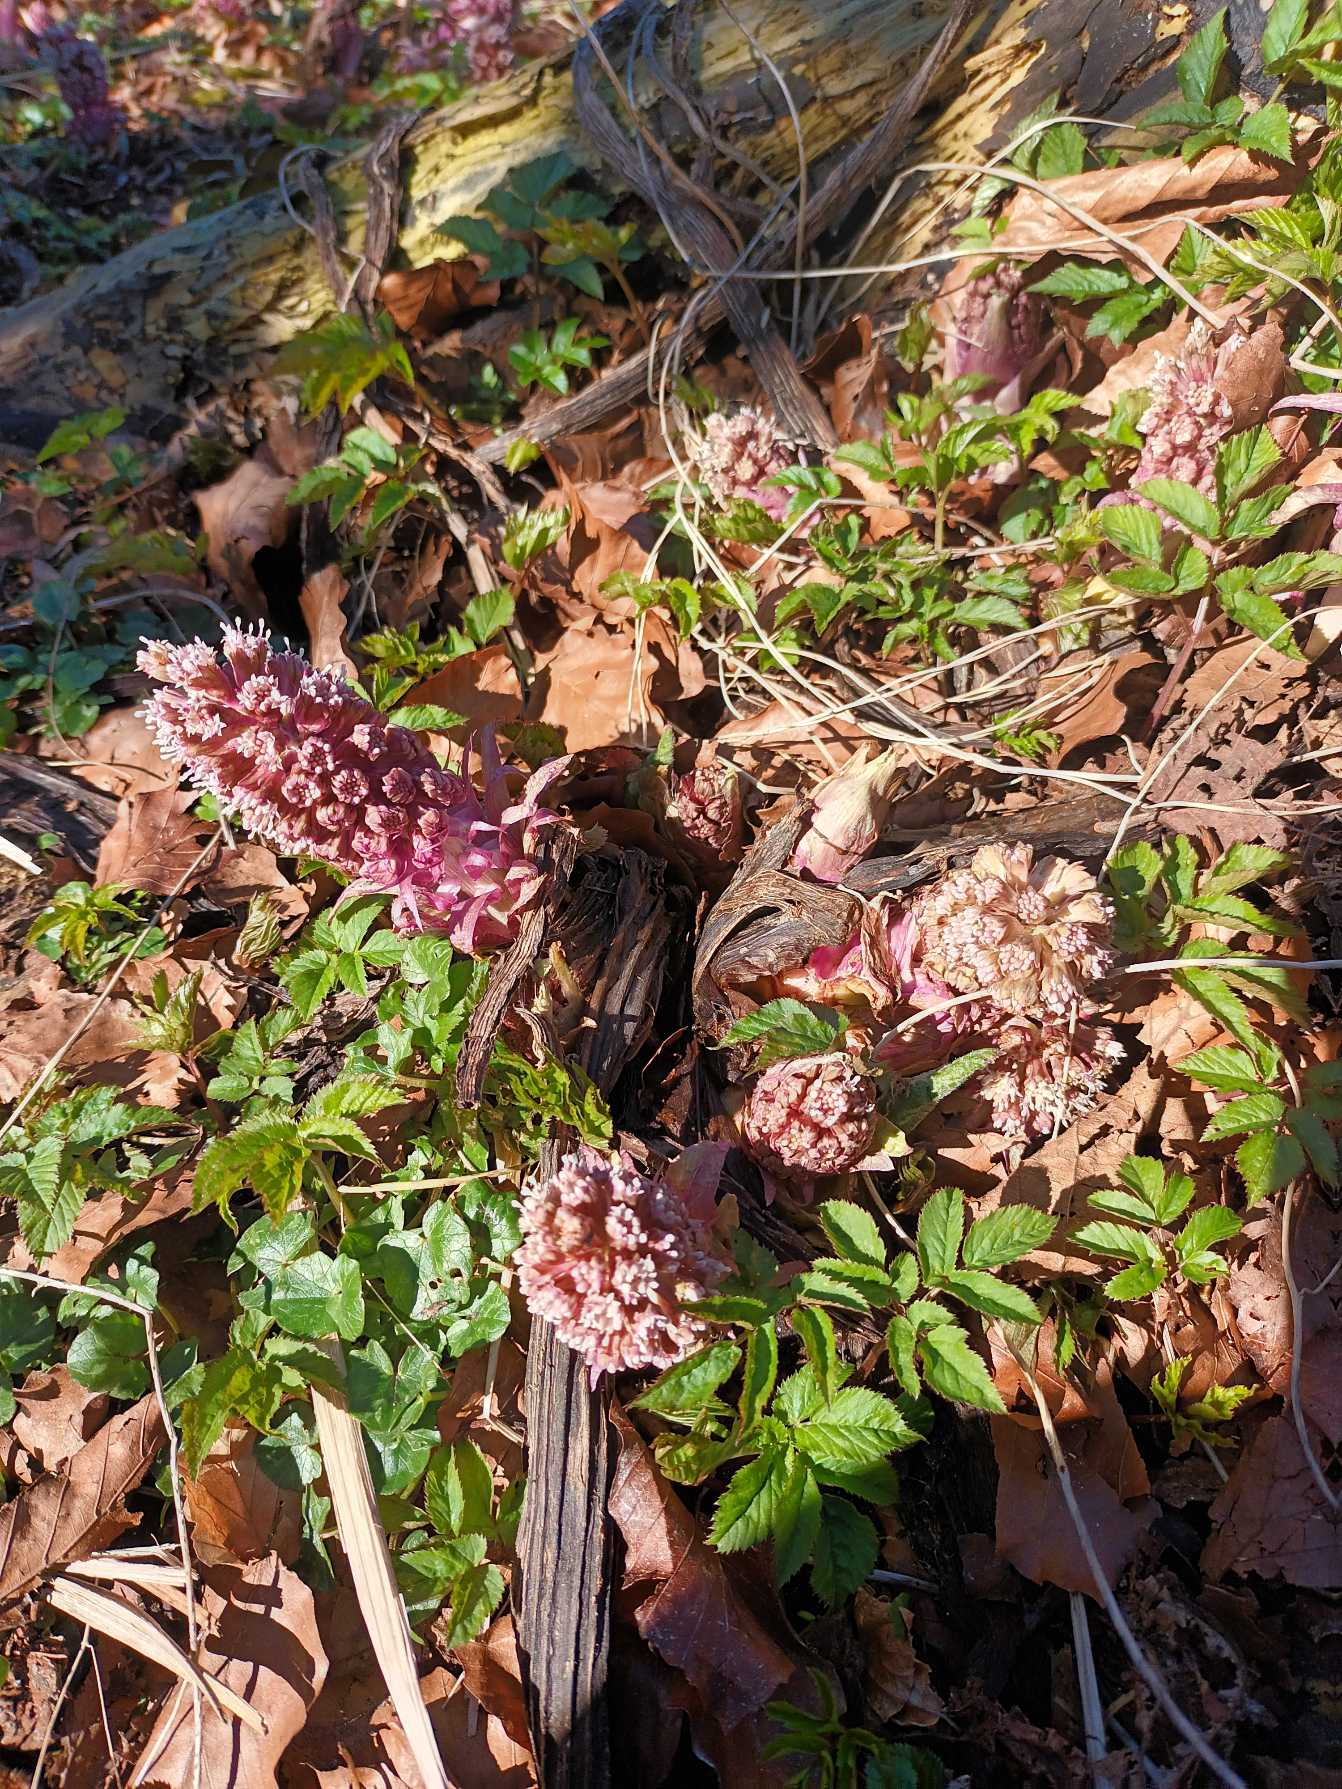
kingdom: Plantae
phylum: Tracheophyta
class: Magnoliopsida
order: Asterales
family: Asteraceae
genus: Petasites
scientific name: Petasites hybridus
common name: Rød hestehov
